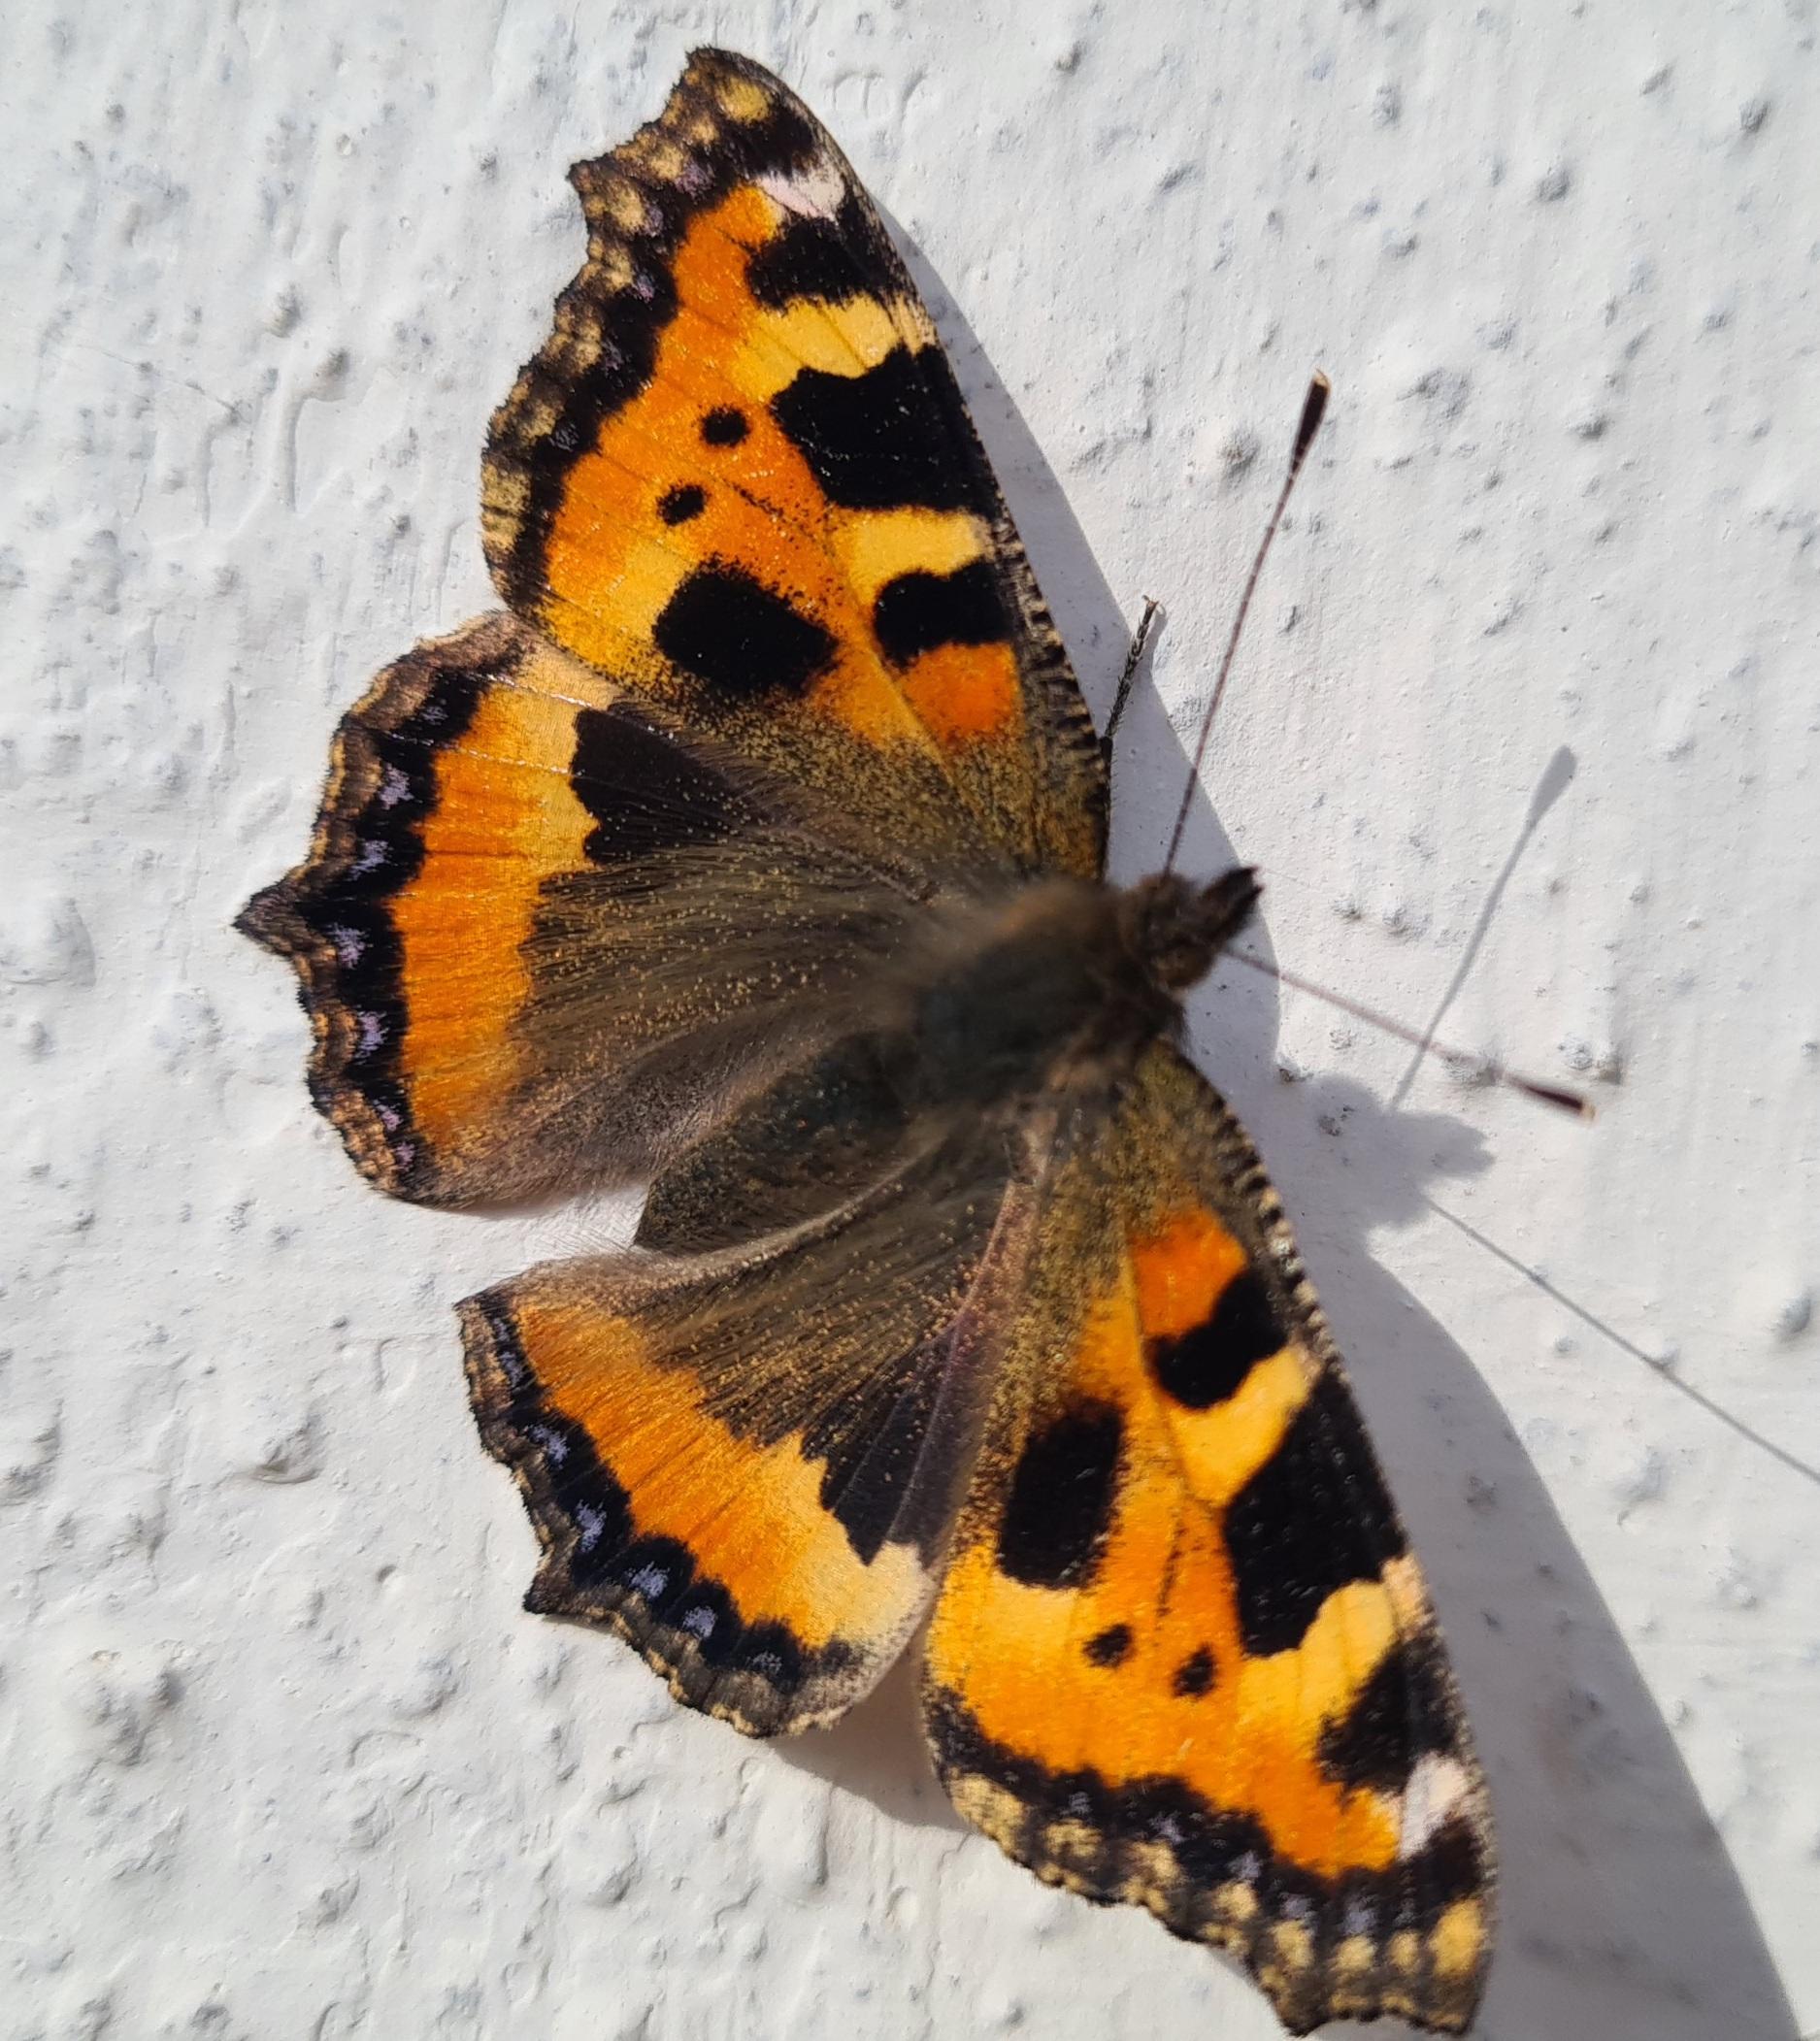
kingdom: Animalia
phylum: Arthropoda
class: Insecta
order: Lepidoptera
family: Nymphalidae
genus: Aglais
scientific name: Aglais urticae
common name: Nældens takvinge
